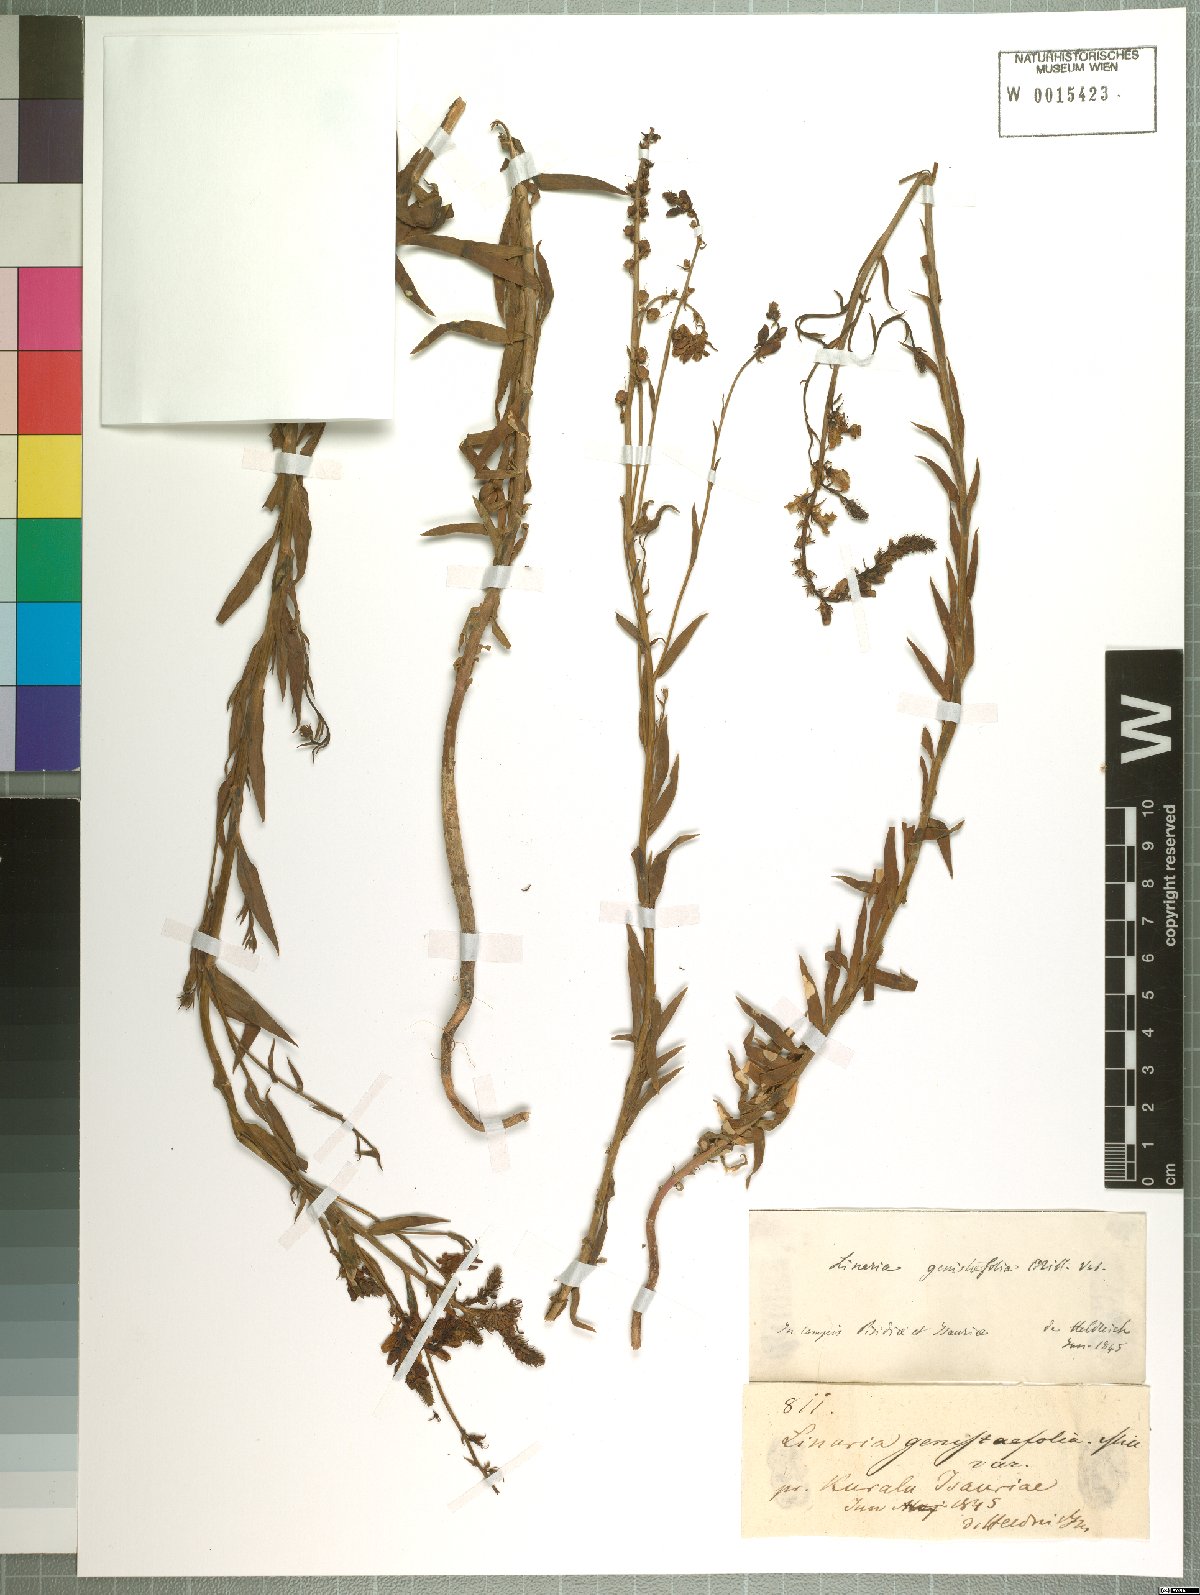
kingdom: Plantae
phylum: Tracheophyta
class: Magnoliopsida
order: Lamiales
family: Plantaginaceae
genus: Linaria
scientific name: Linaria genistifolia
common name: Broomleaf toadflax
